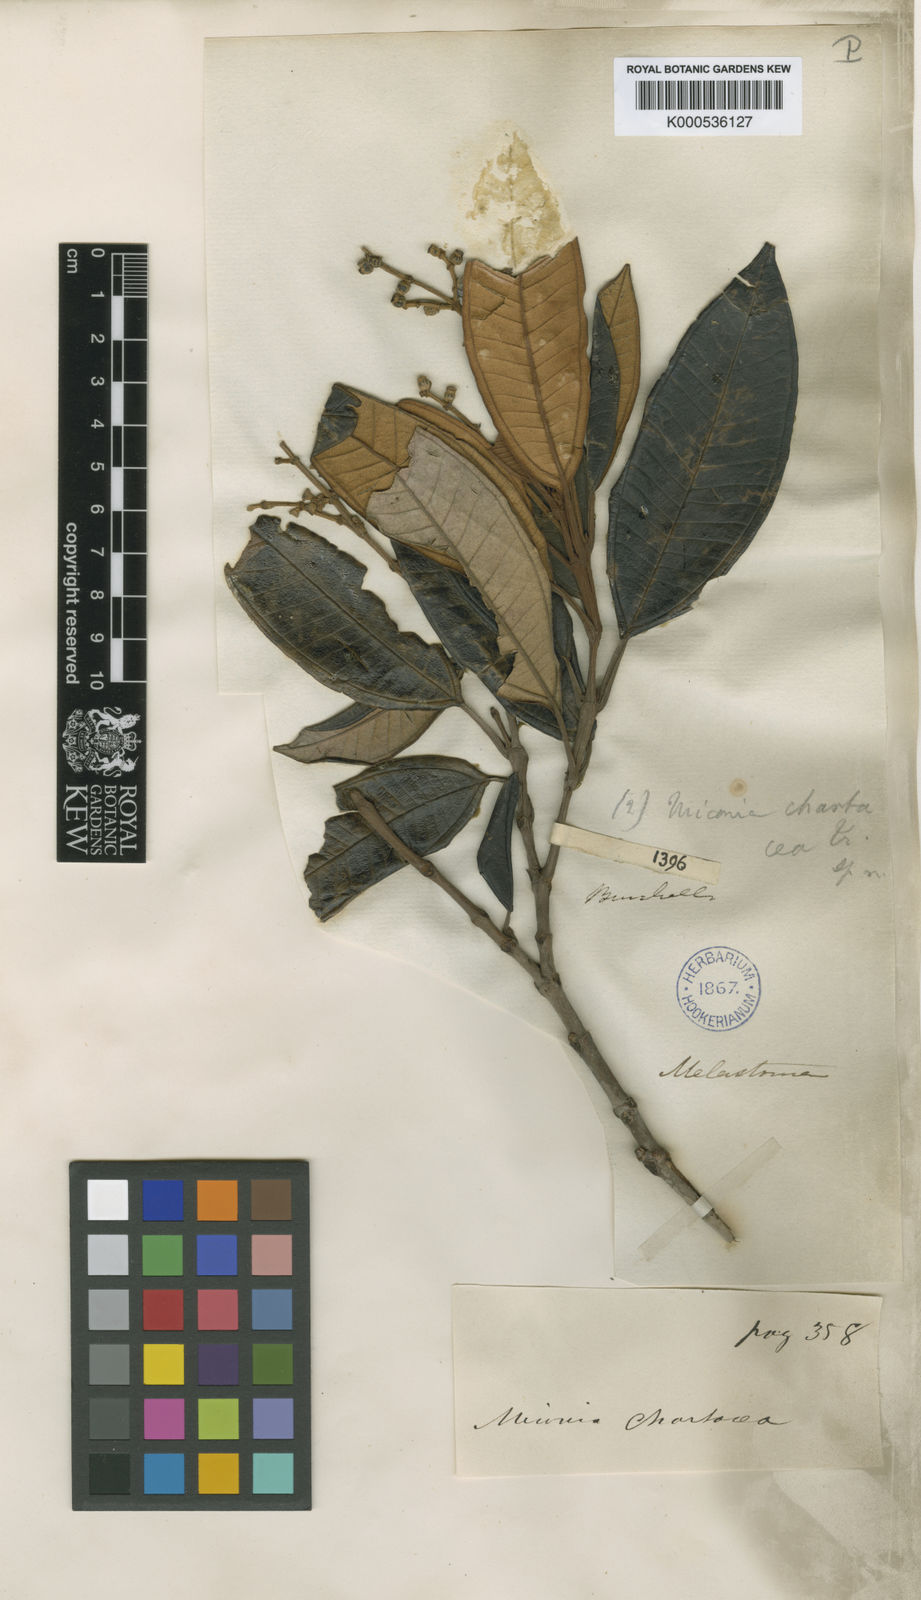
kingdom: Plantae
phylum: Tracheophyta
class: Magnoliopsida
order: Myrtales
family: Melastomataceae
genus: Miconia
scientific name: Miconia chartacea
